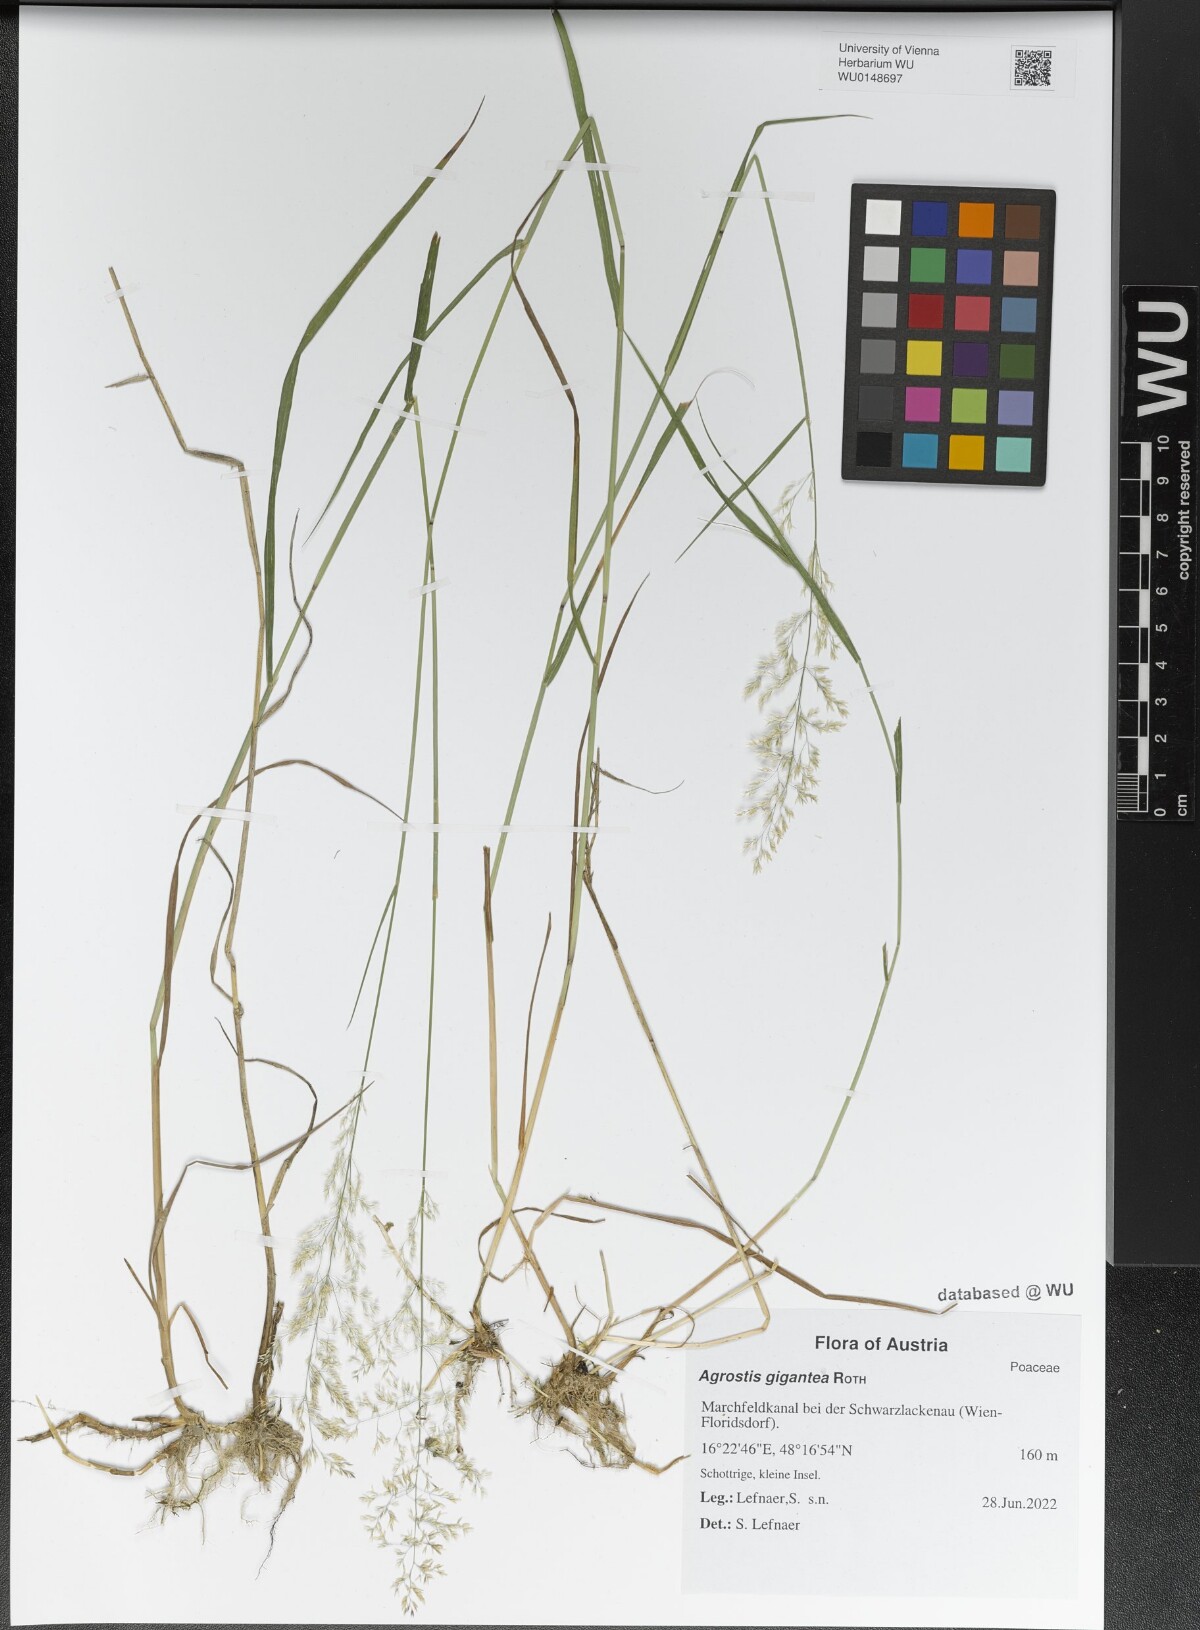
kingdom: Plantae
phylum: Tracheophyta
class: Liliopsida
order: Poales
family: Poaceae
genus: Agrostis
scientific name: Agrostis gigantea
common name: Black bent
